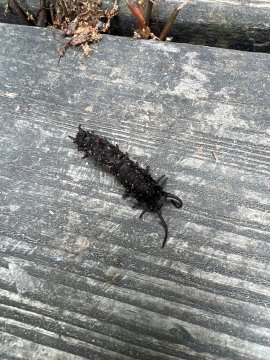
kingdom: Animalia
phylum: Arthropoda
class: Insecta
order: Lepidoptera
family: Papilionidae
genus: Battus
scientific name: Battus philenor
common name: Pipevine Swallowtail
